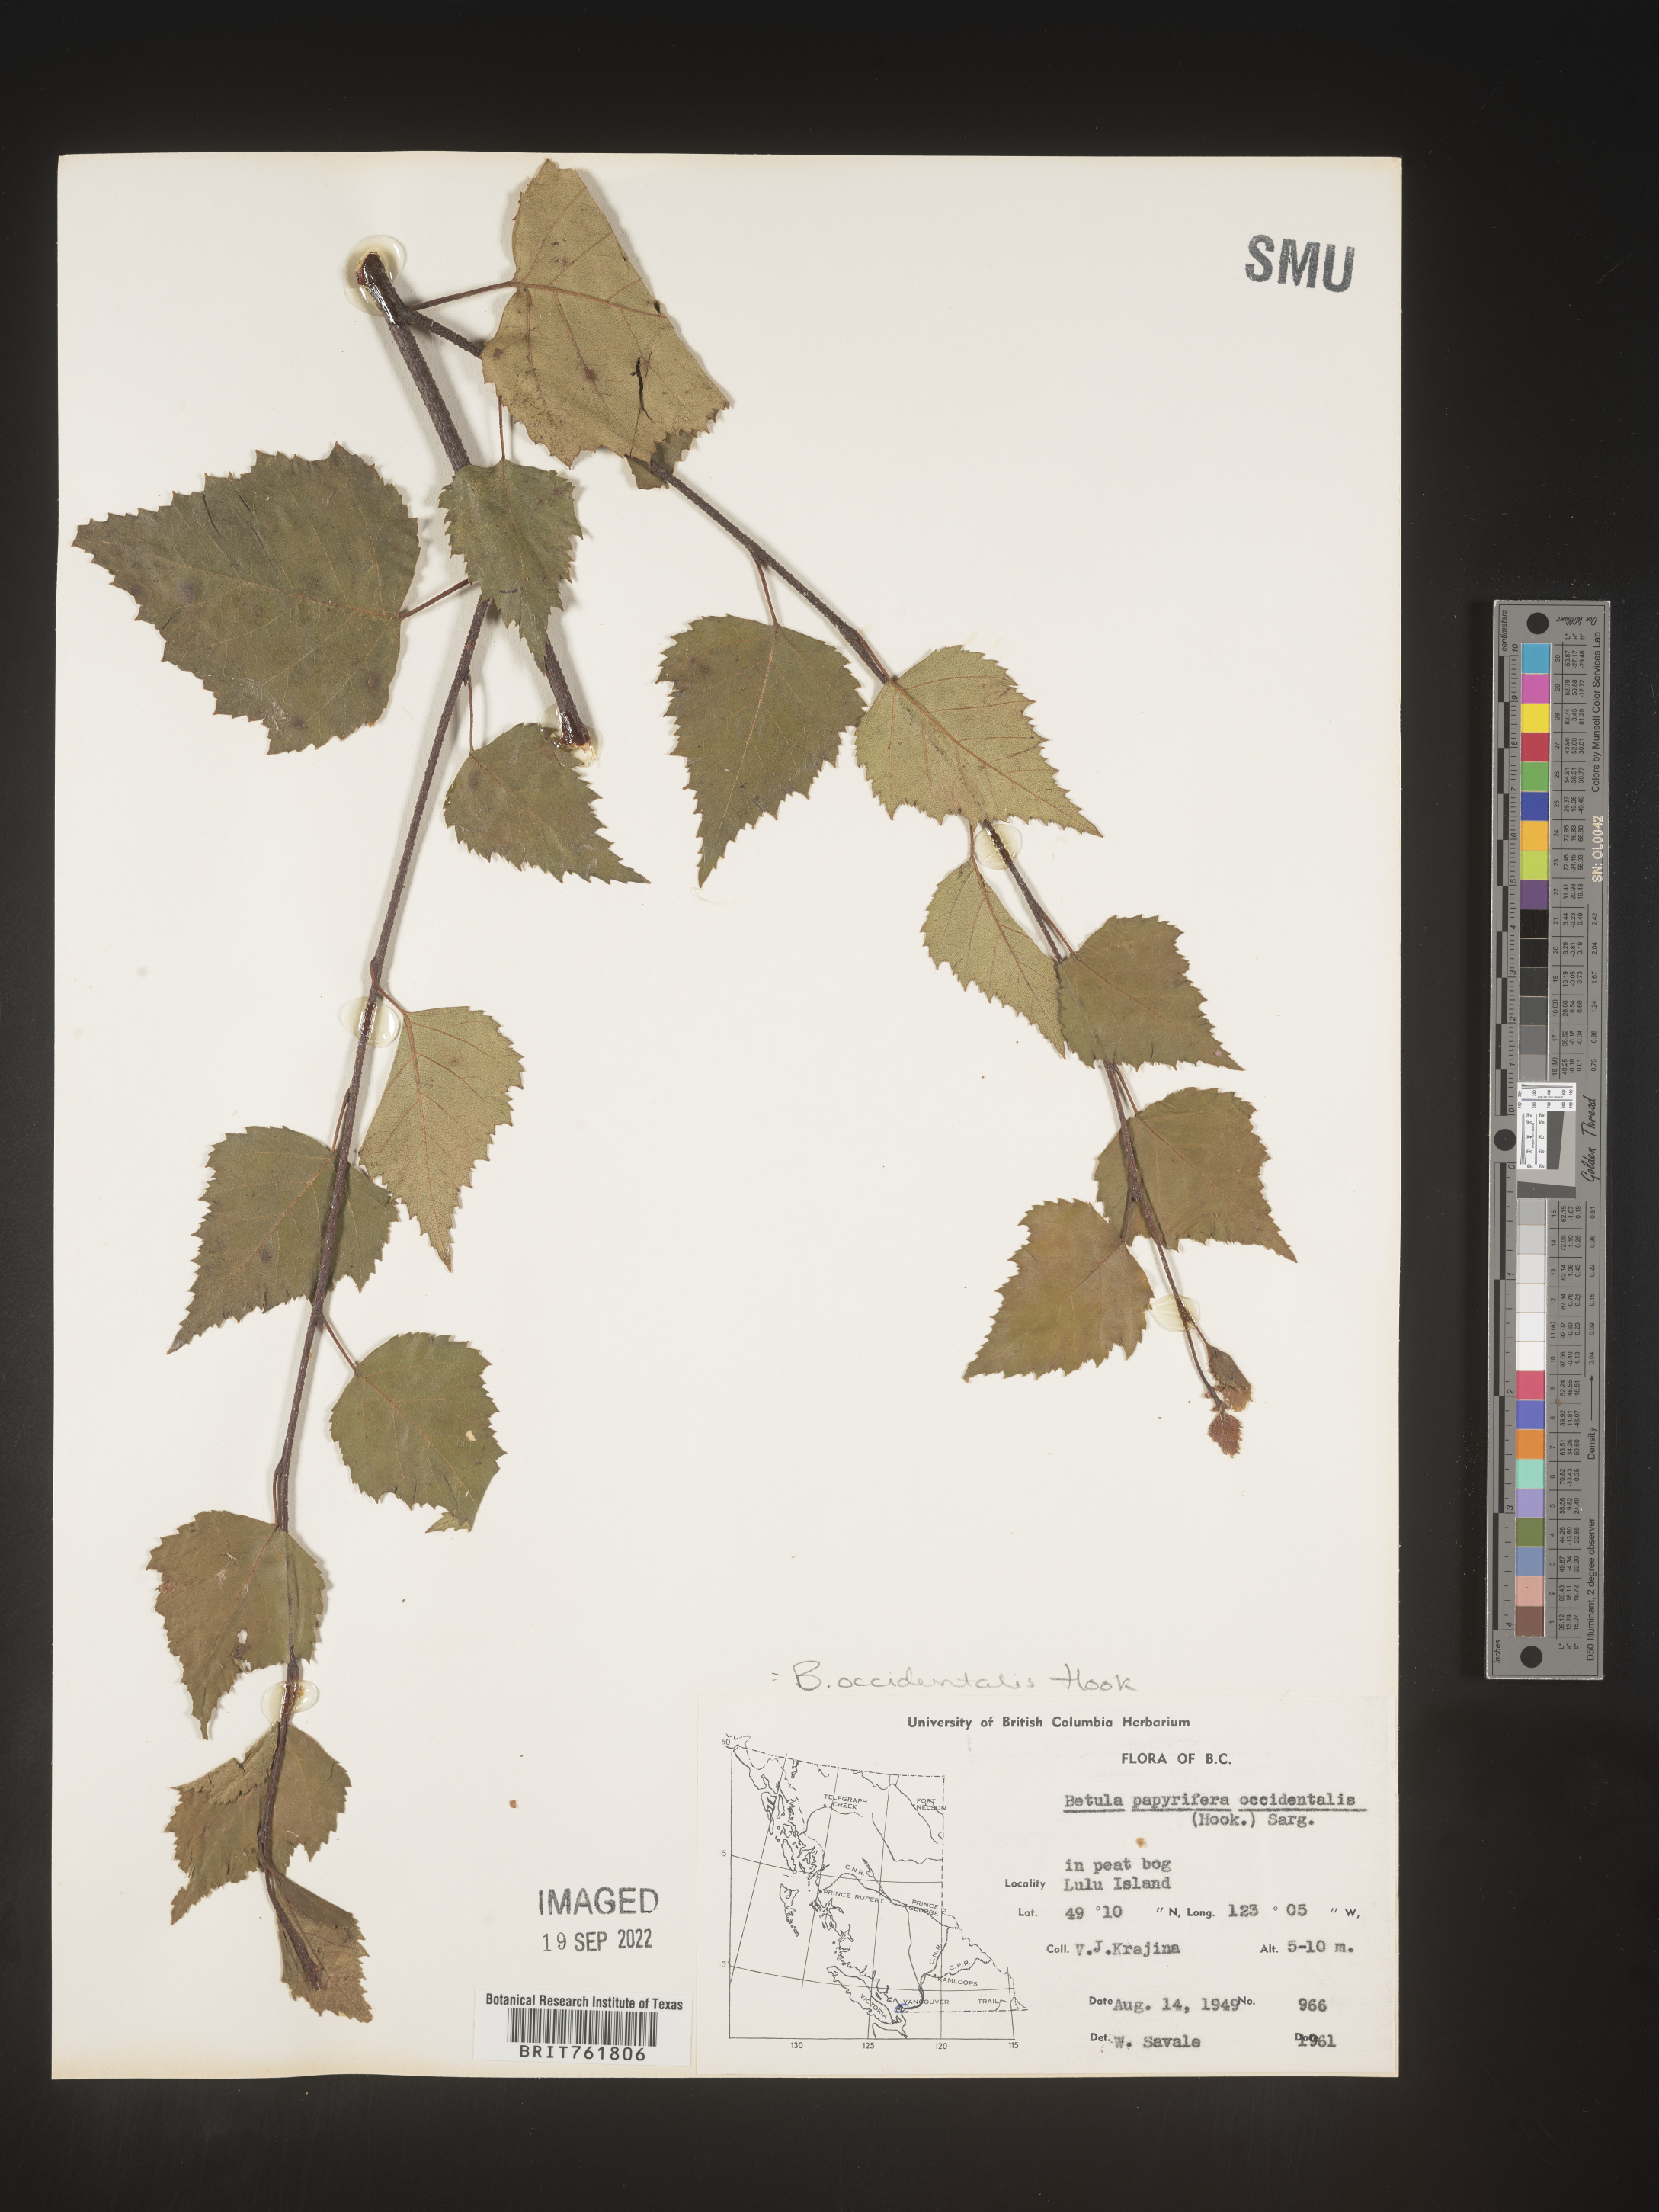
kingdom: Plantae
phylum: Tracheophyta
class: Magnoliopsida
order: Fagales
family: Betulaceae
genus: Betula
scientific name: Betula occidentalis
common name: River birch
